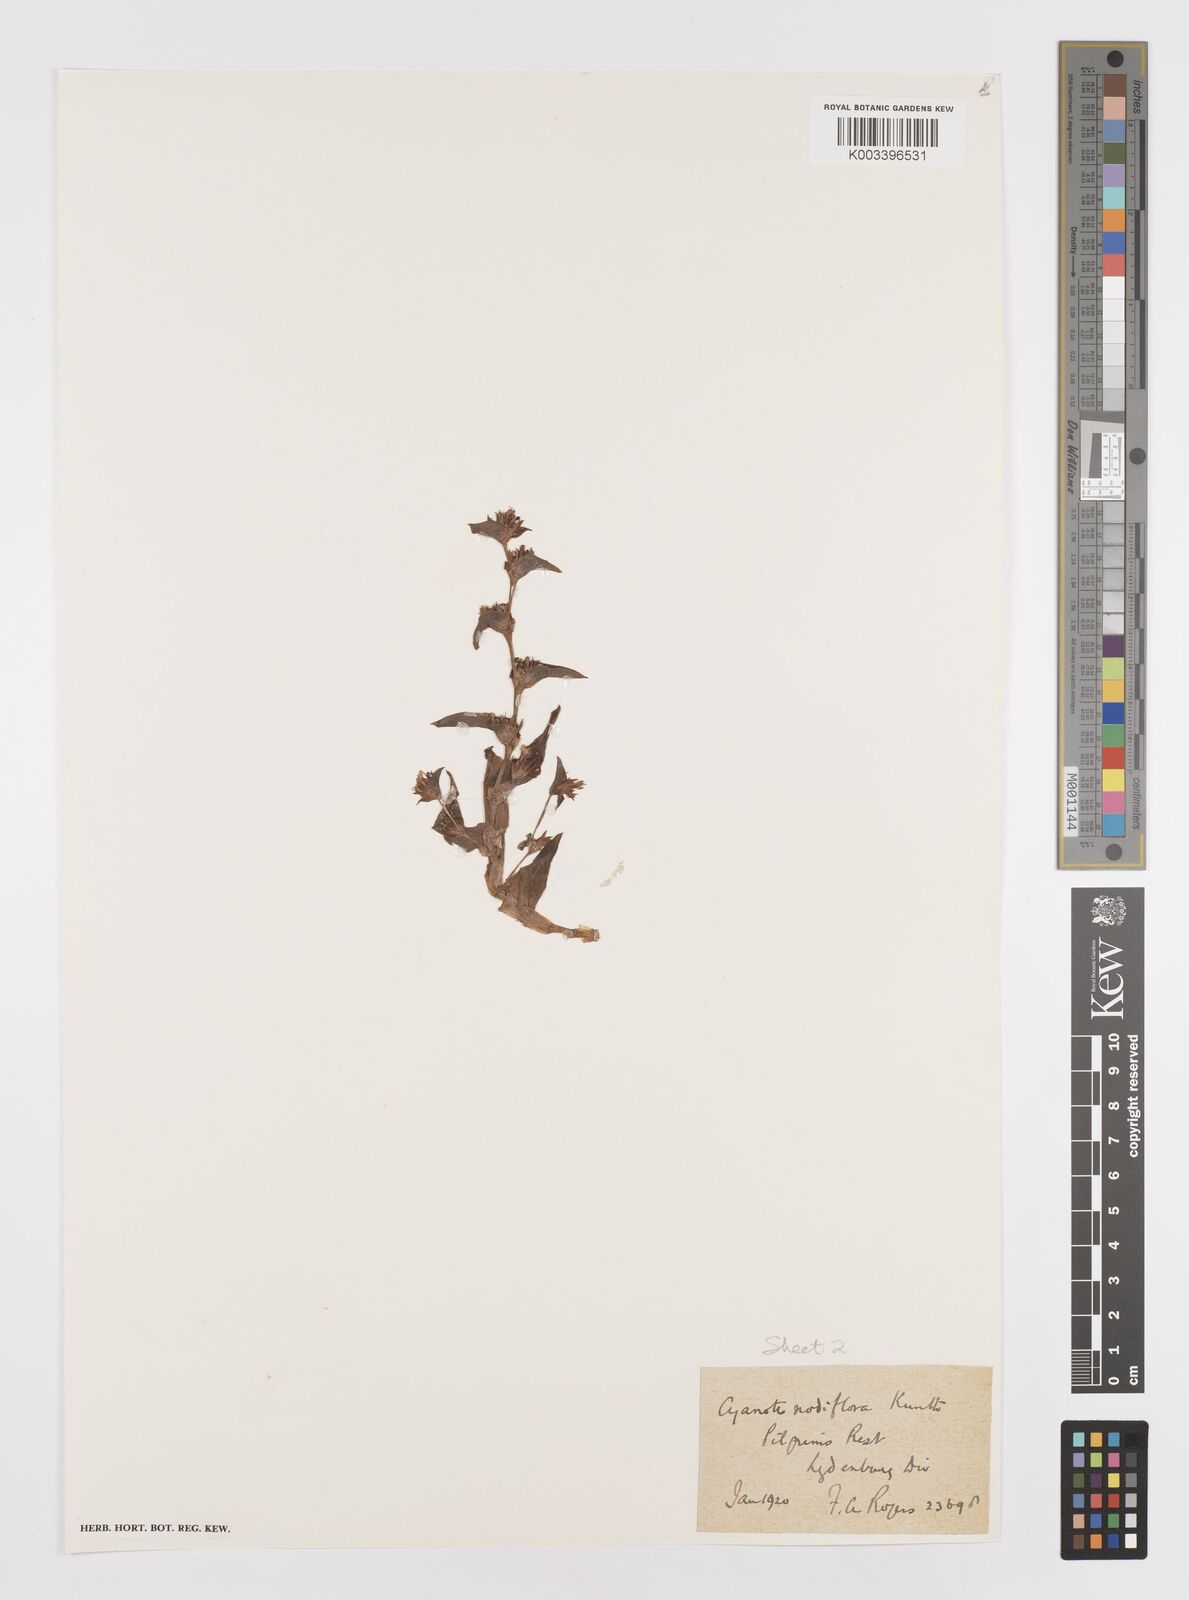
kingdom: Plantae
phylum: Tracheophyta
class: Liliopsida
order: Commelinales
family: Commelinaceae
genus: Cyanotis
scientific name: Cyanotis lapidosa
